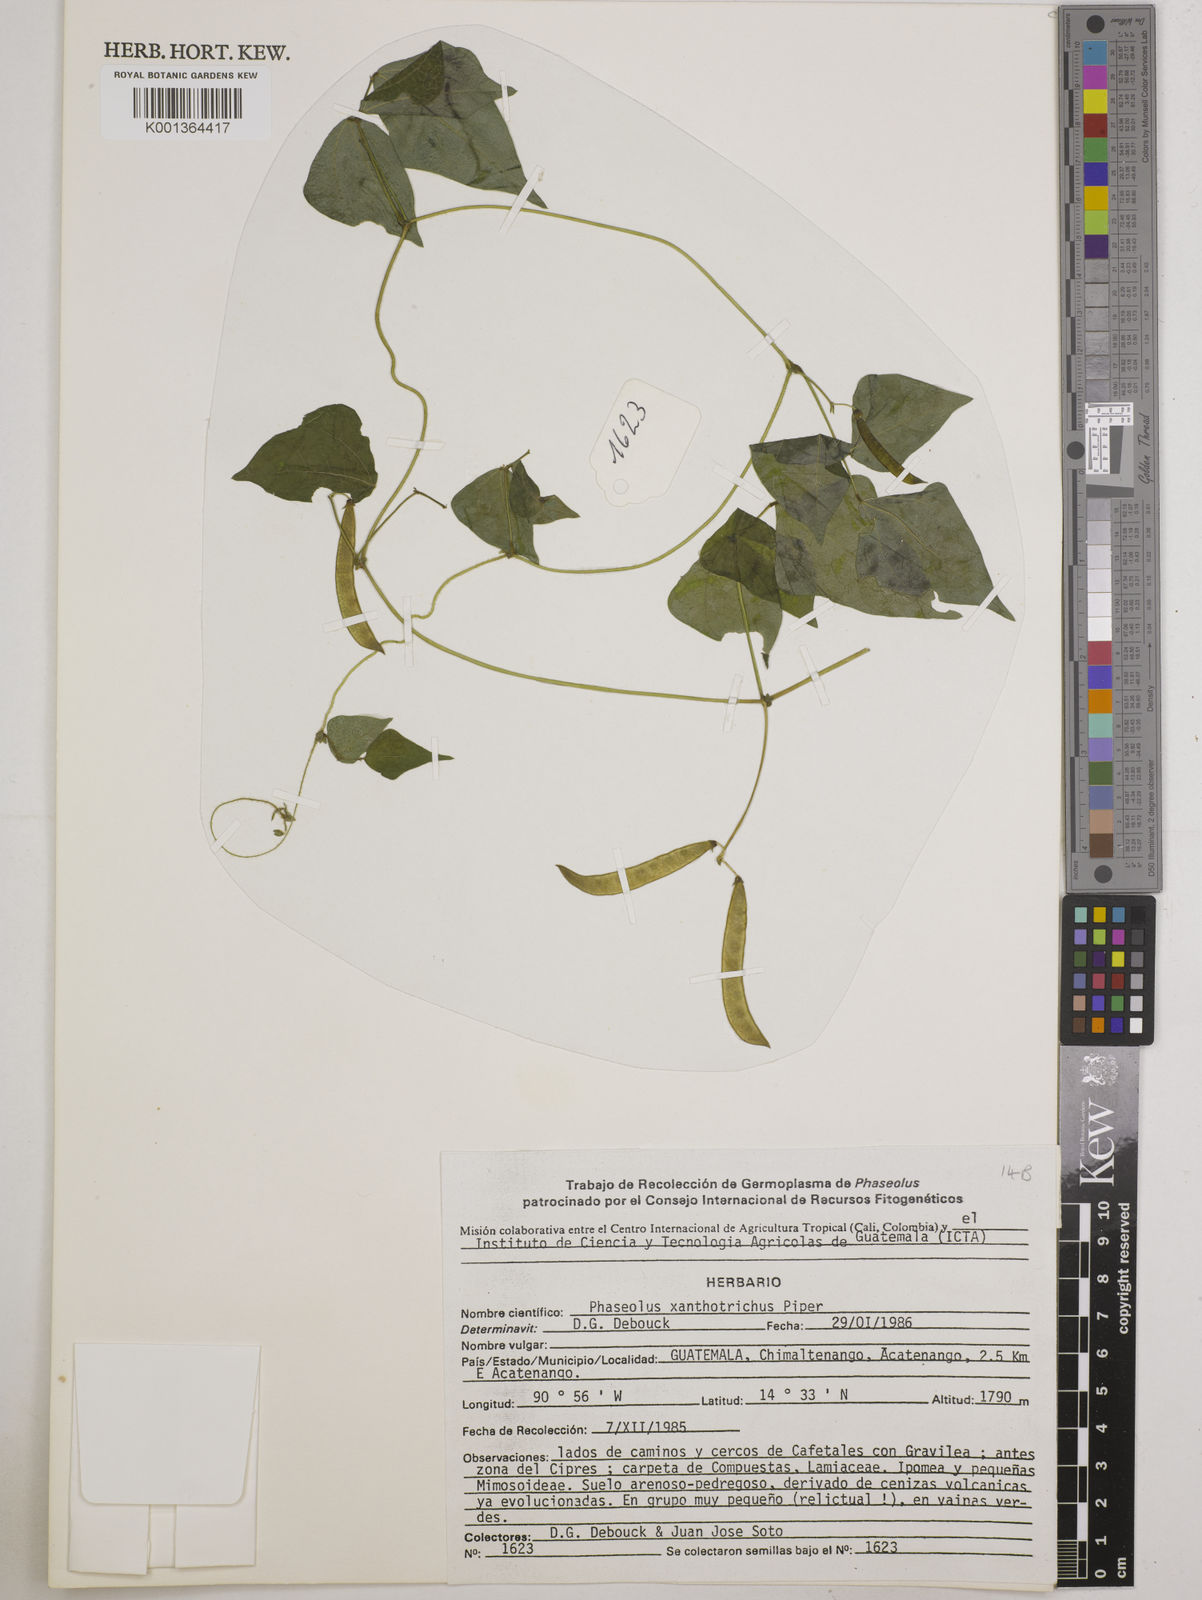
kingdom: Plantae
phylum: Tracheophyta
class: Magnoliopsida
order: Fabales
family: Fabaceae
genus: Phaseolus
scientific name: Phaseolus xanthotrichus
